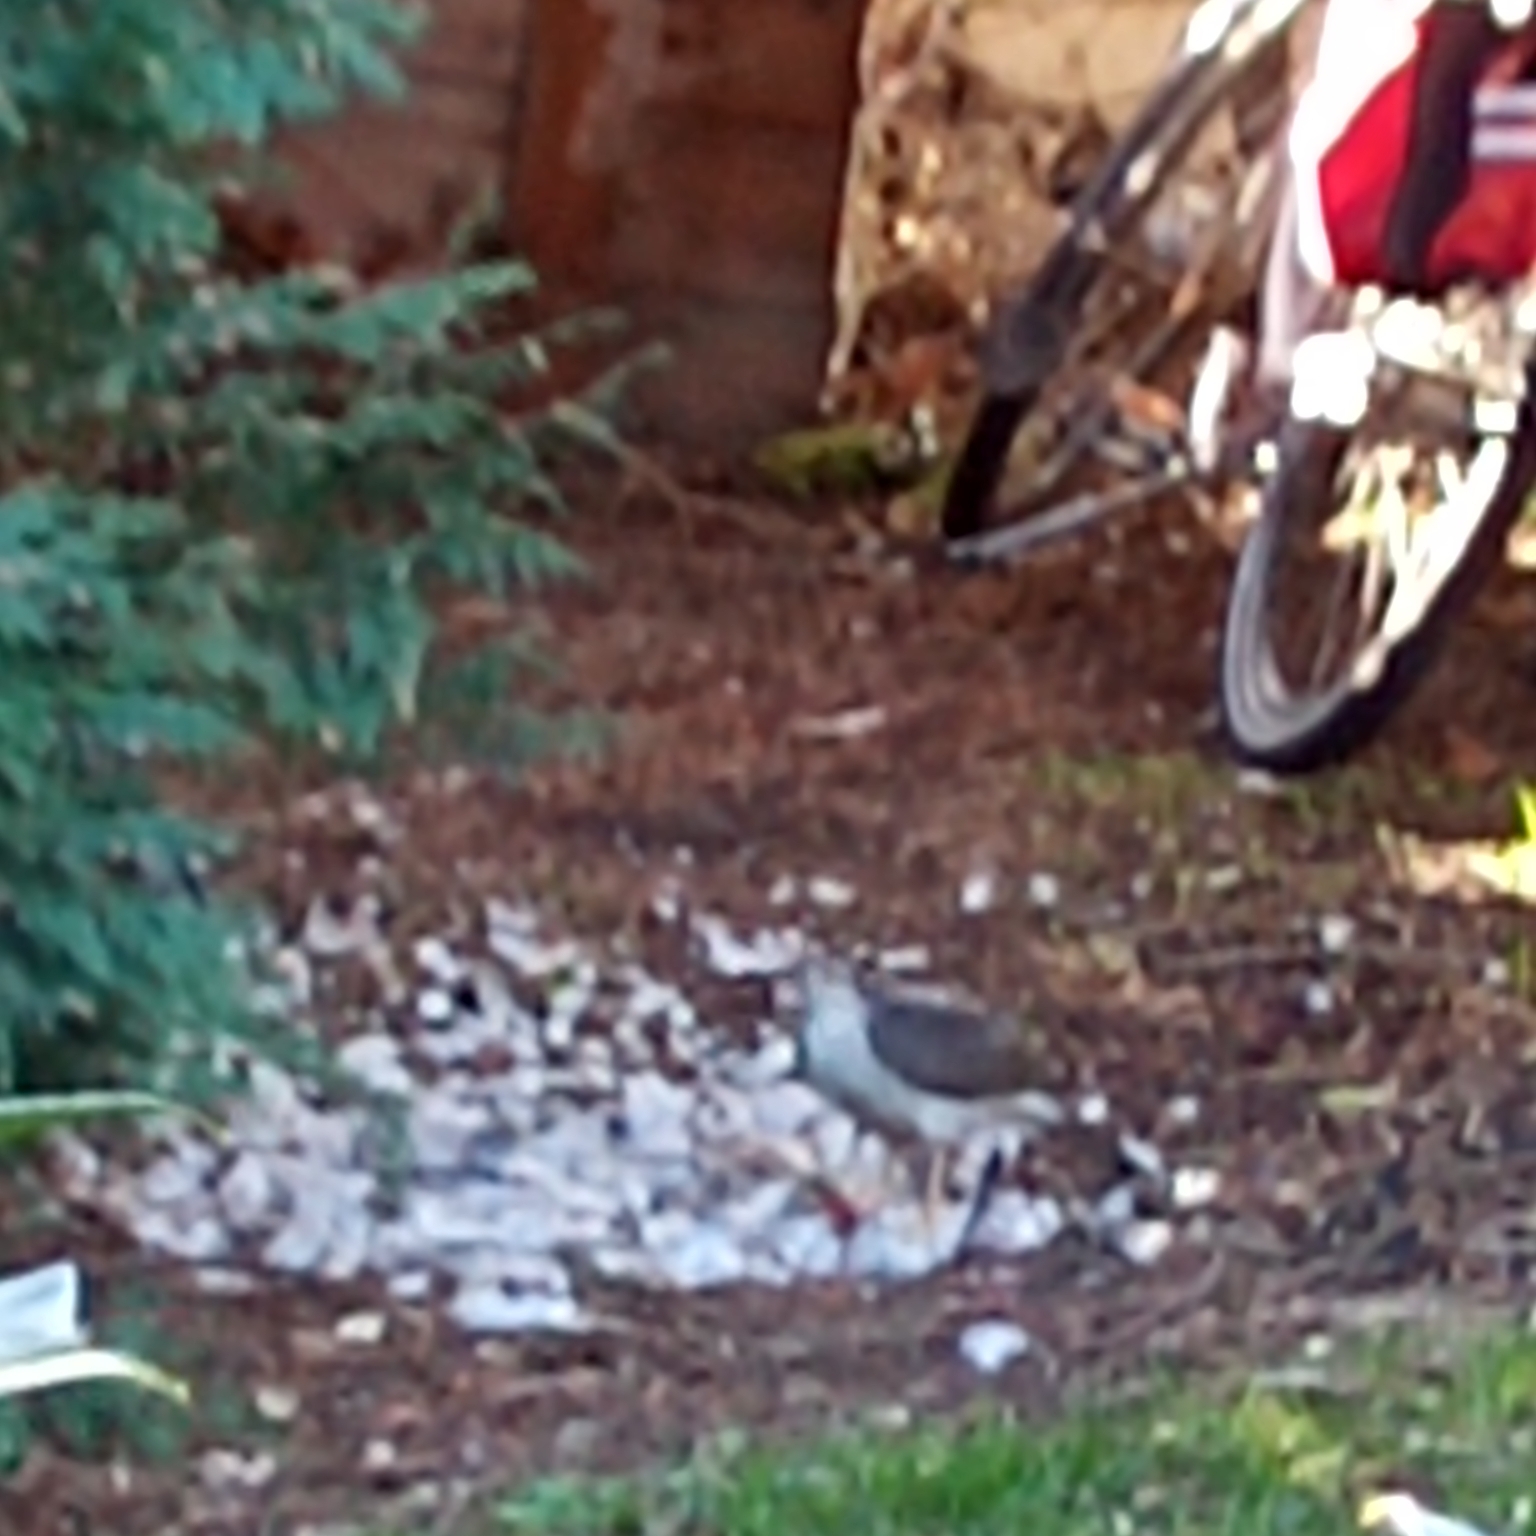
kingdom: Animalia
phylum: Chordata
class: Aves
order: Accipitriformes
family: Accipitridae
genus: Accipiter
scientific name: Accipiter nisus
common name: Spurvehøg
